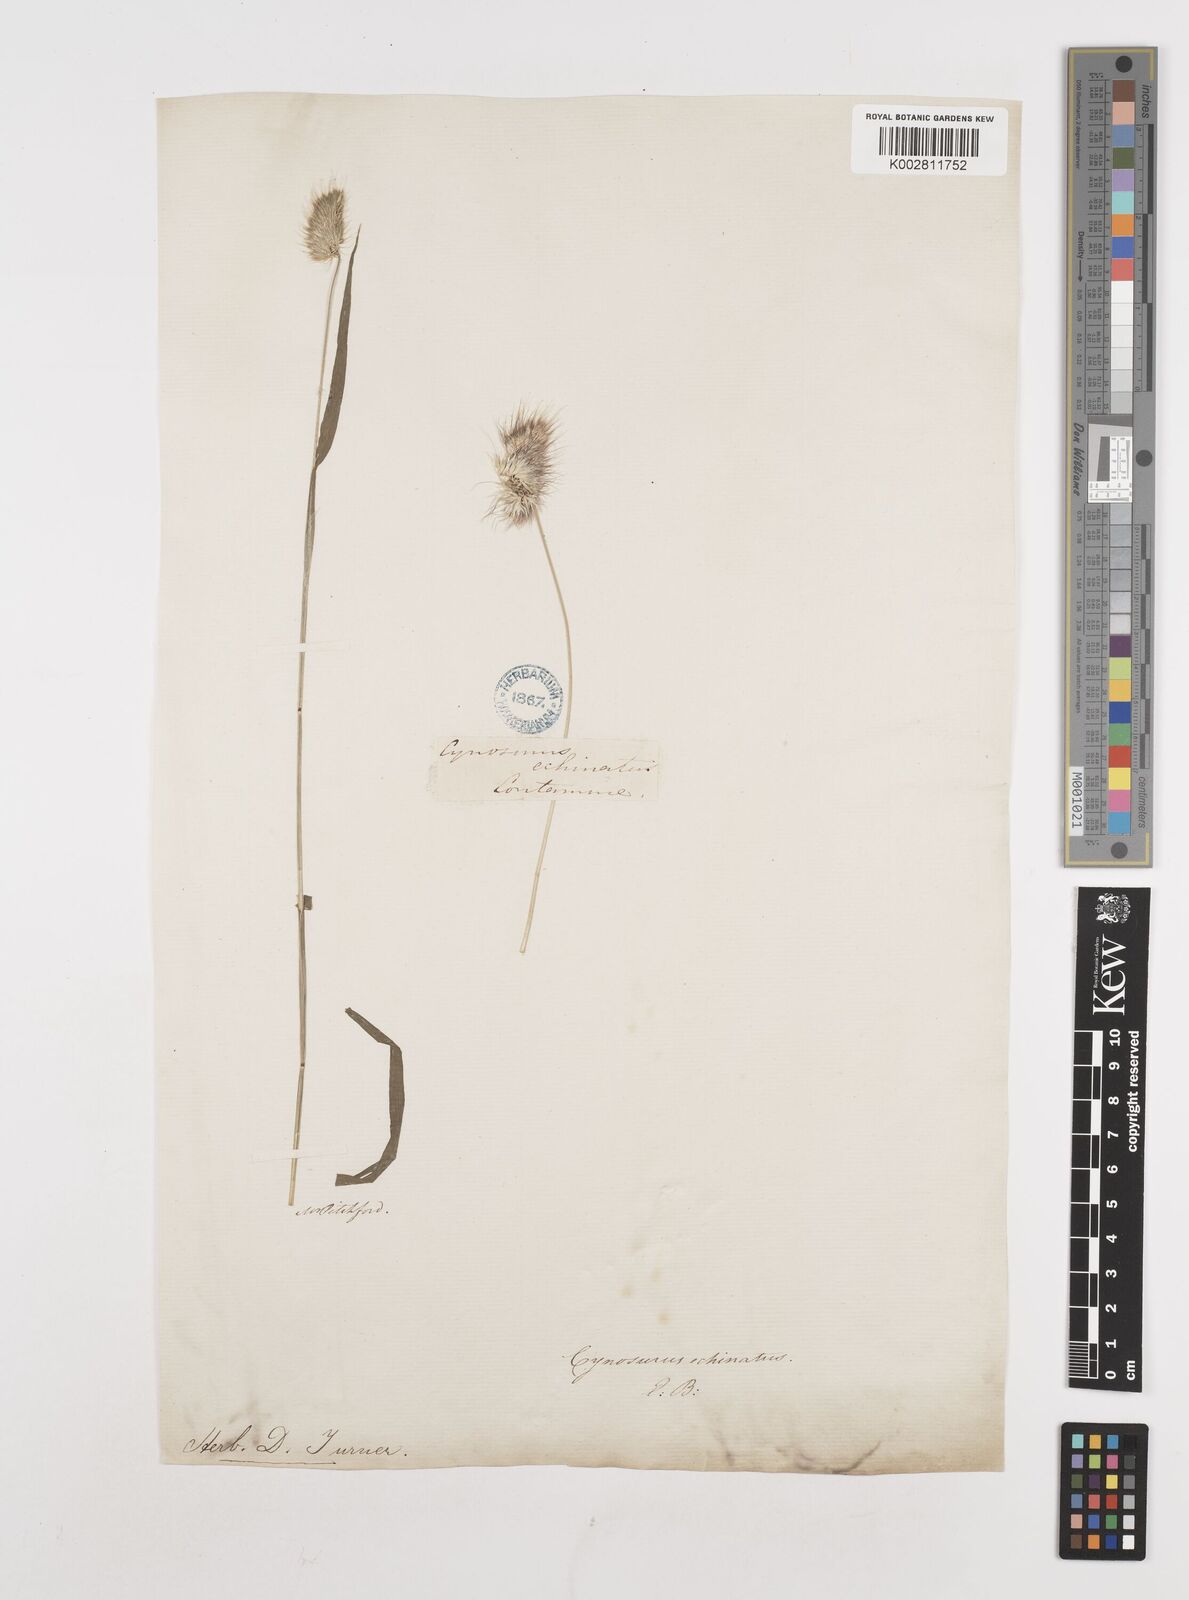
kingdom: Plantae
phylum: Tracheophyta
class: Liliopsida
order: Poales
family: Poaceae
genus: Cynosurus
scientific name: Cynosurus echinatus
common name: Rough dog's-tail
